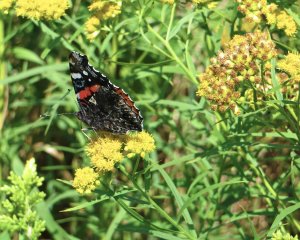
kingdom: Animalia
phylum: Arthropoda
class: Insecta
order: Lepidoptera
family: Nymphalidae
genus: Vanessa
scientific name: Vanessa atalanta
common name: Red Admiral
